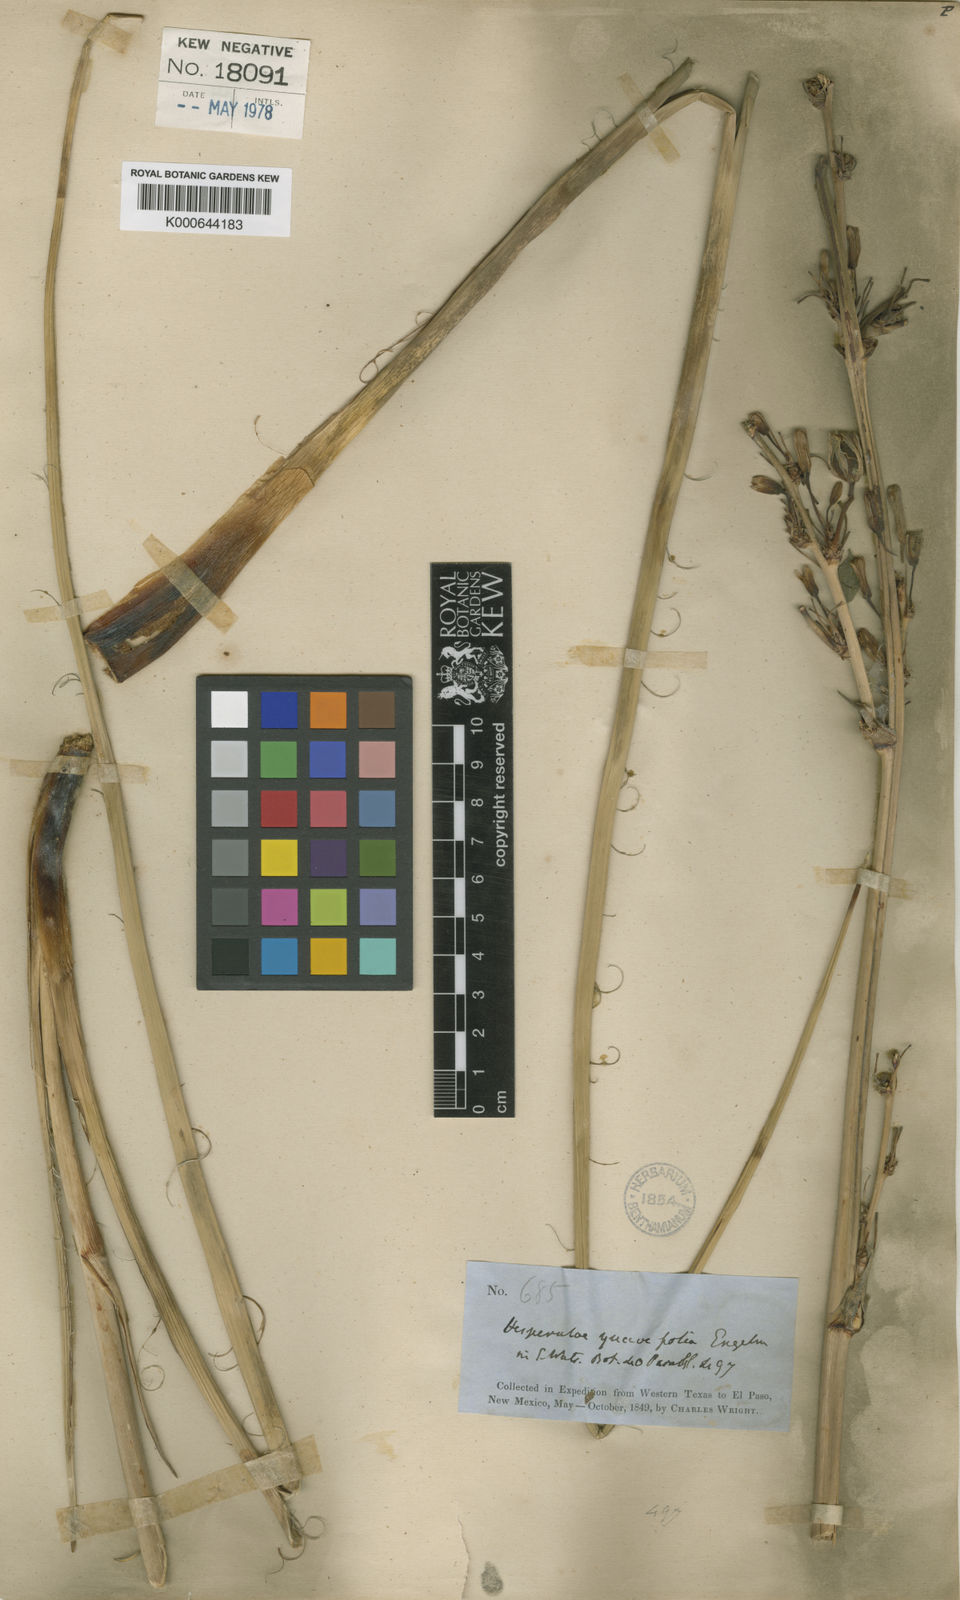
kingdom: Plantae
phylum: Tracheophyta
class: Liliopsida
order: Asparagales
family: Asparagaceae
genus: Hesperaloe
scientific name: Hesperaloe
